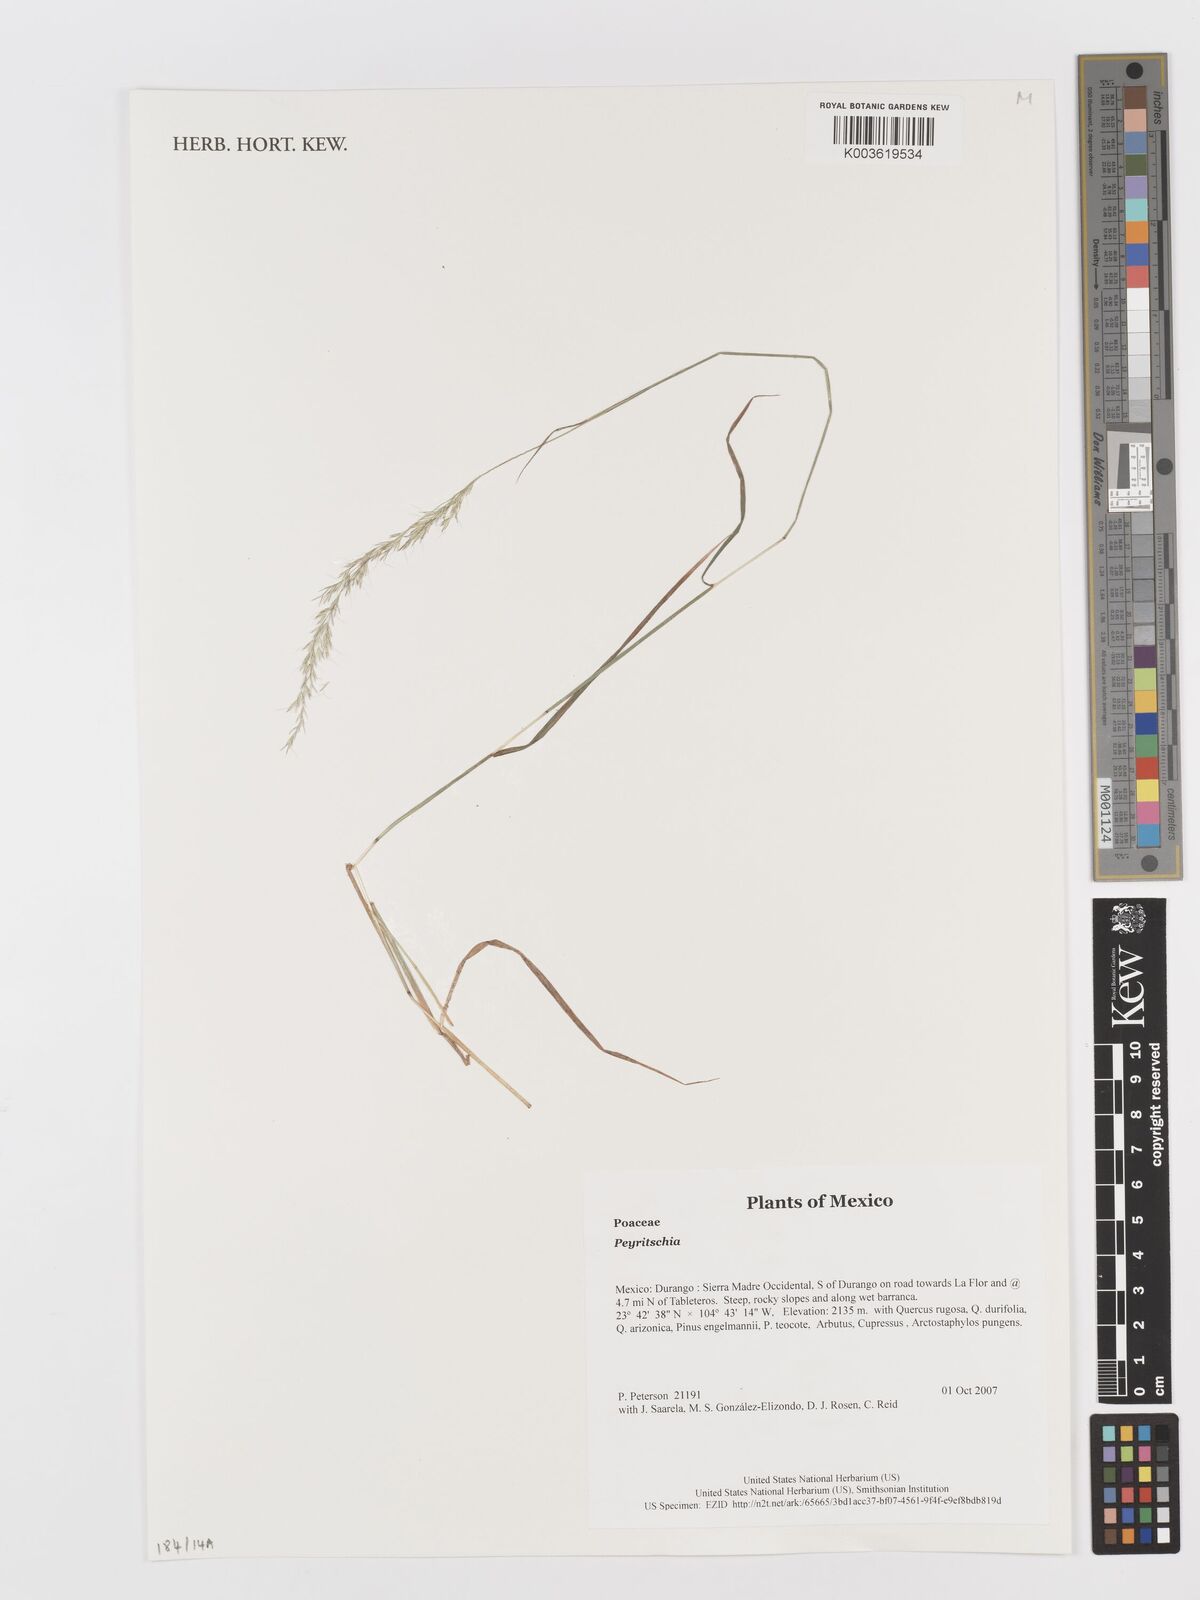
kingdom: Plantae
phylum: Tracheophyta
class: Liliopsida
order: Poales
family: Poaceae
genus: Peyritschia
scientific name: Peyritschia
